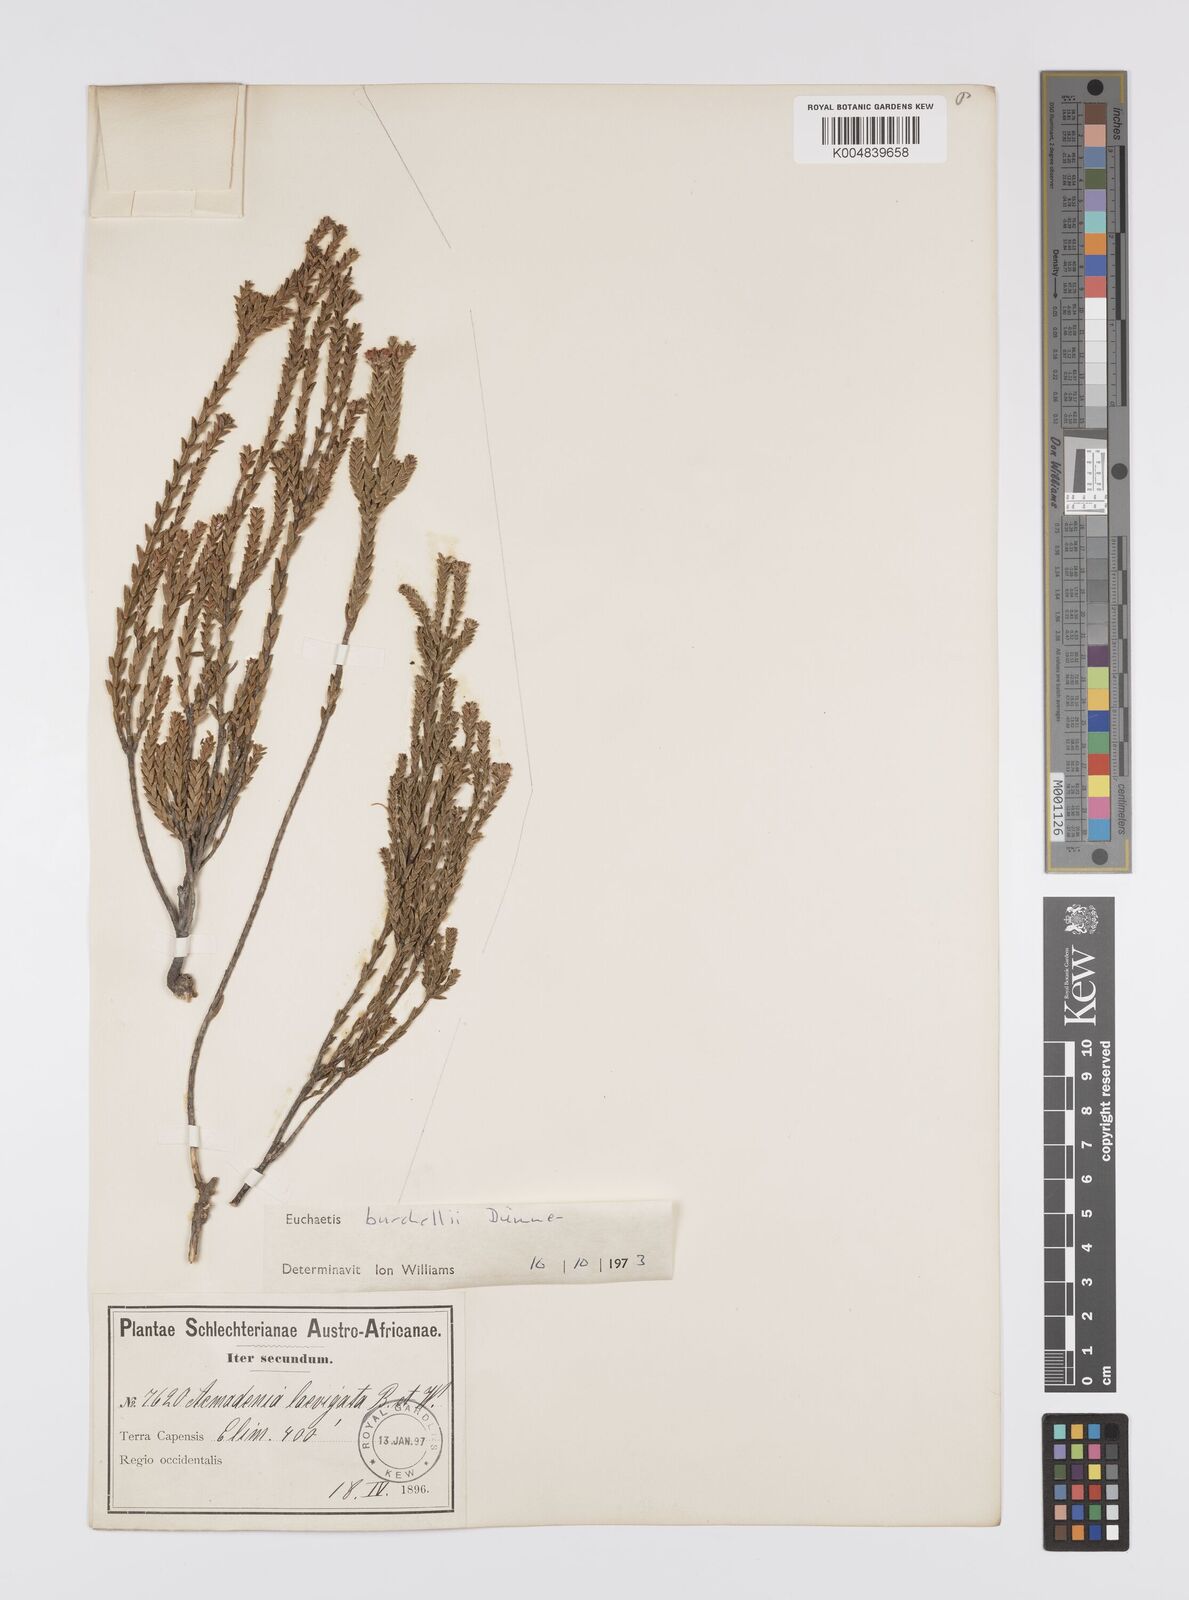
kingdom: Plantae
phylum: Tracheophyta
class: Magnoliopsida
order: Sapindales
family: Rutaceae
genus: Euchaetis
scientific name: Euchaetis burchellii
